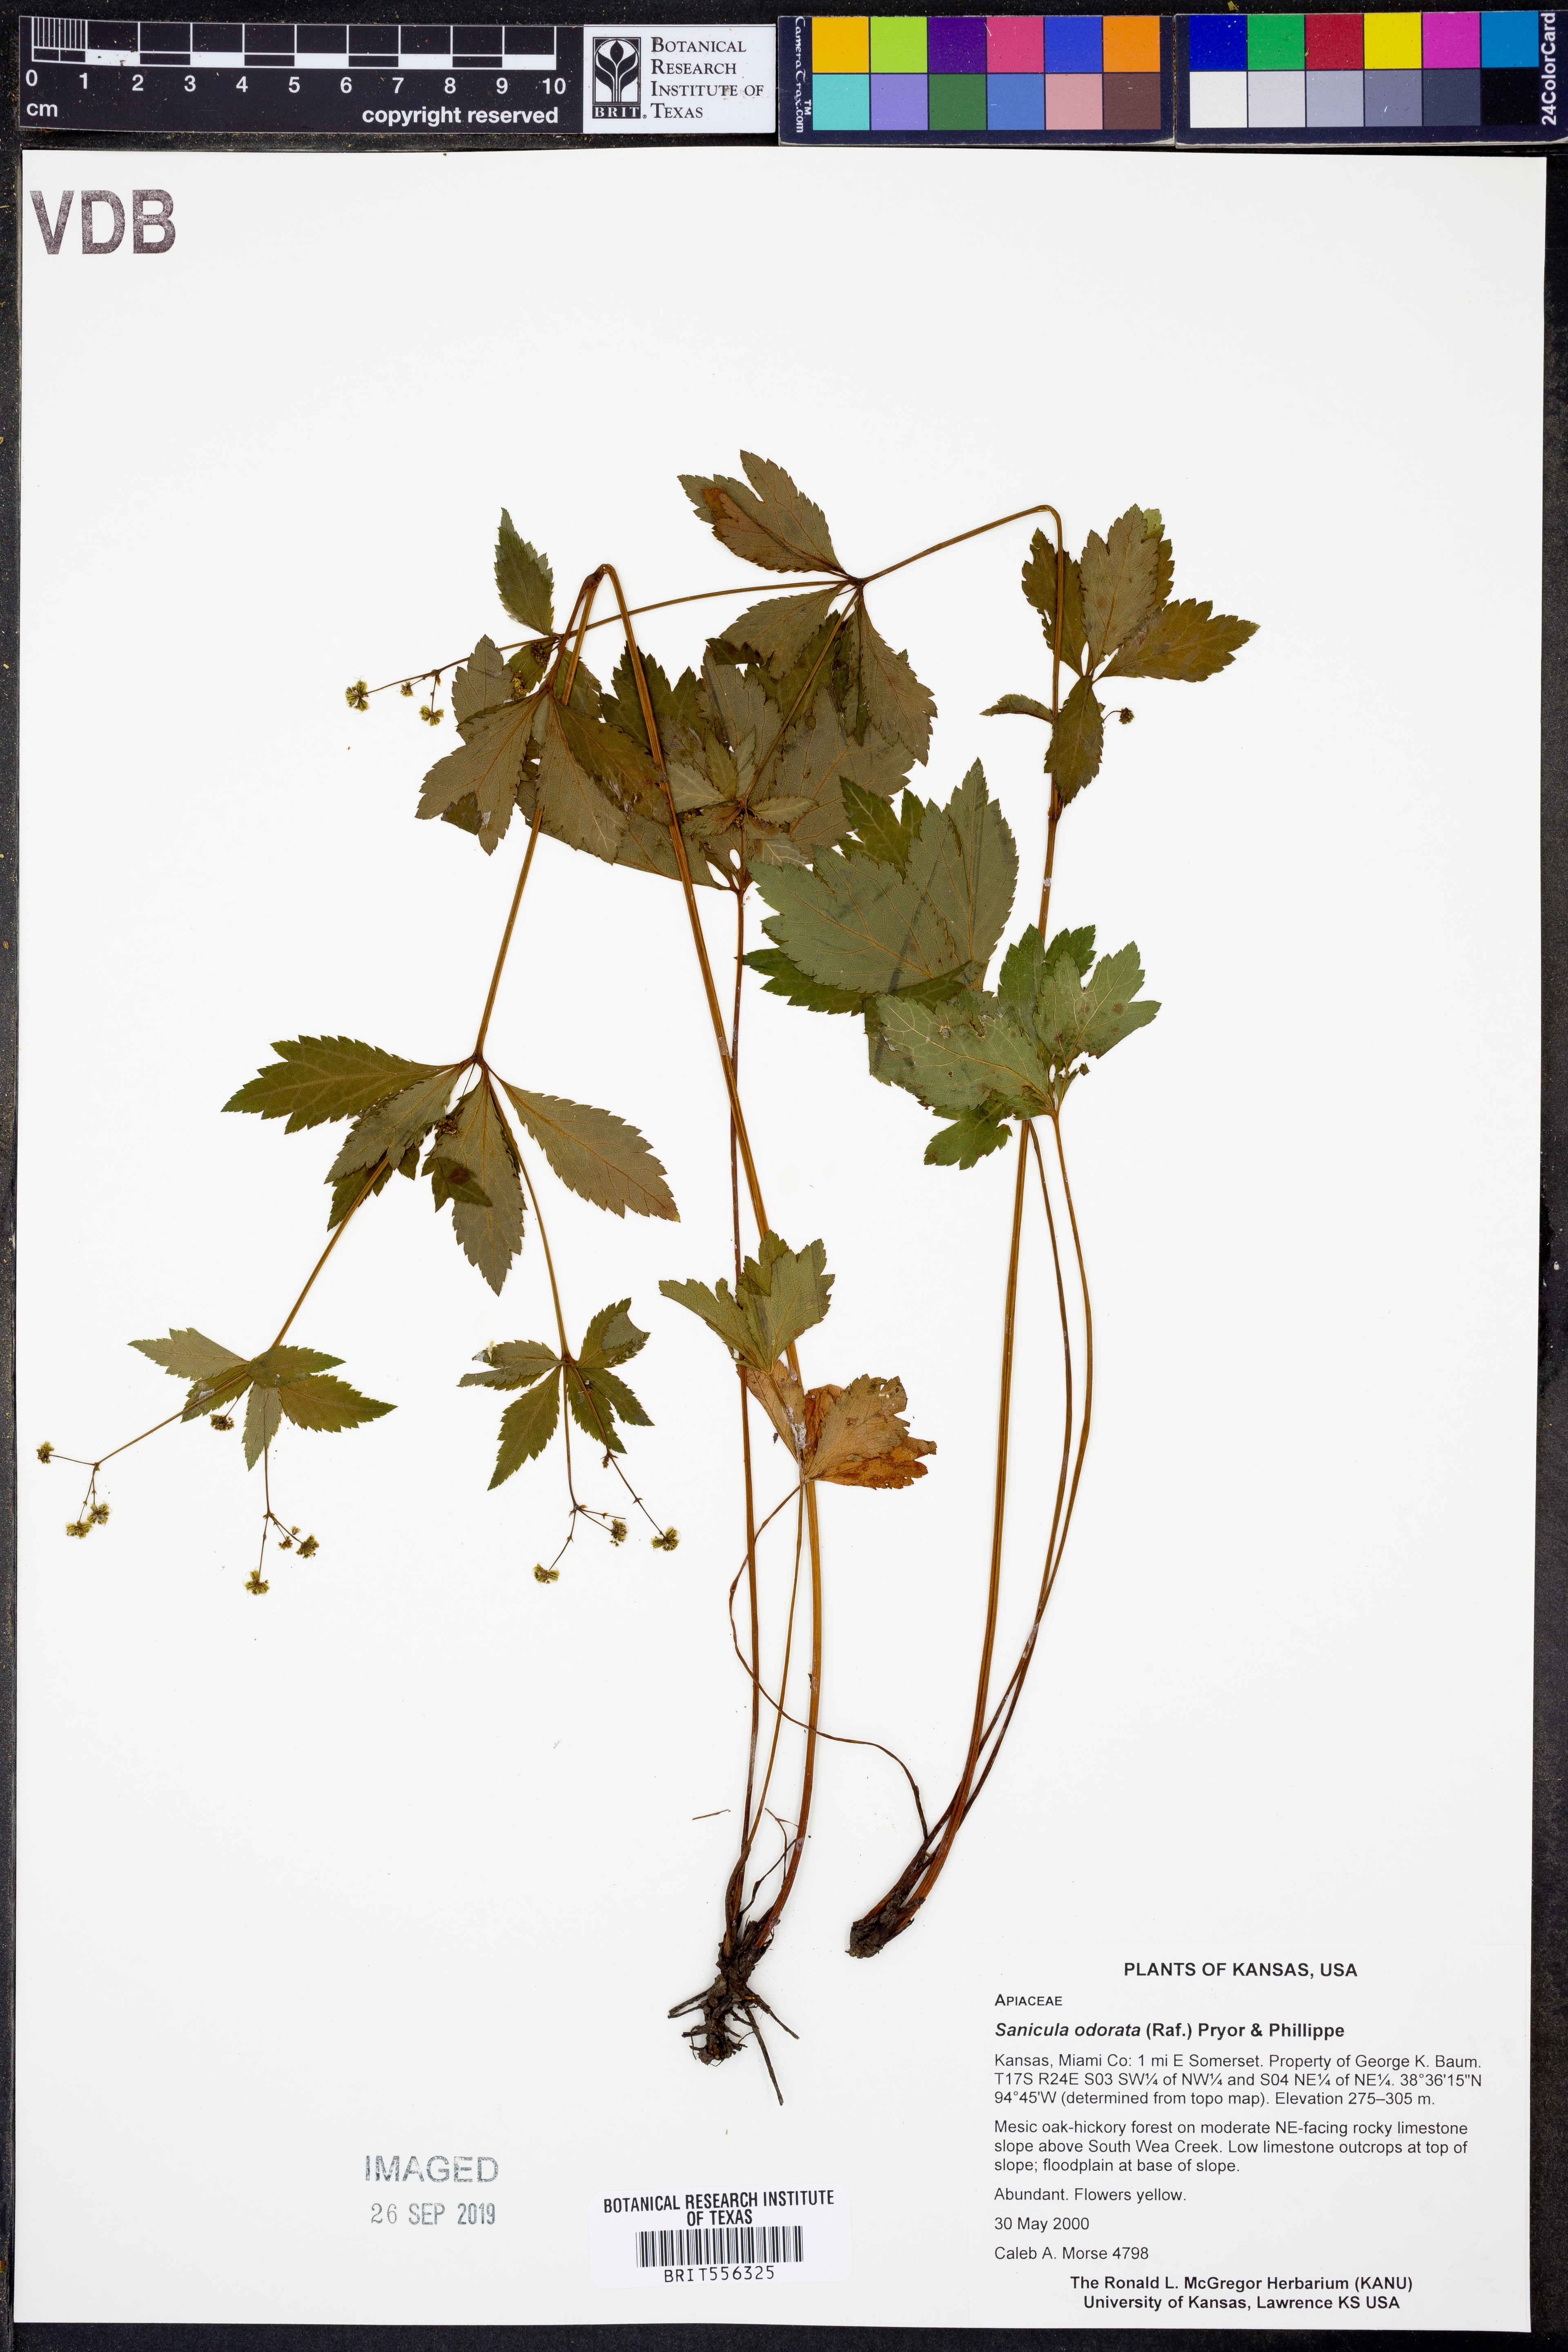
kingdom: Plantae
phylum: Tracheophyta
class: Magnoliopsida
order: Apiales
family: Apiaceae
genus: Sanicula
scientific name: Sanicula odorata
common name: Cluster sanicle
